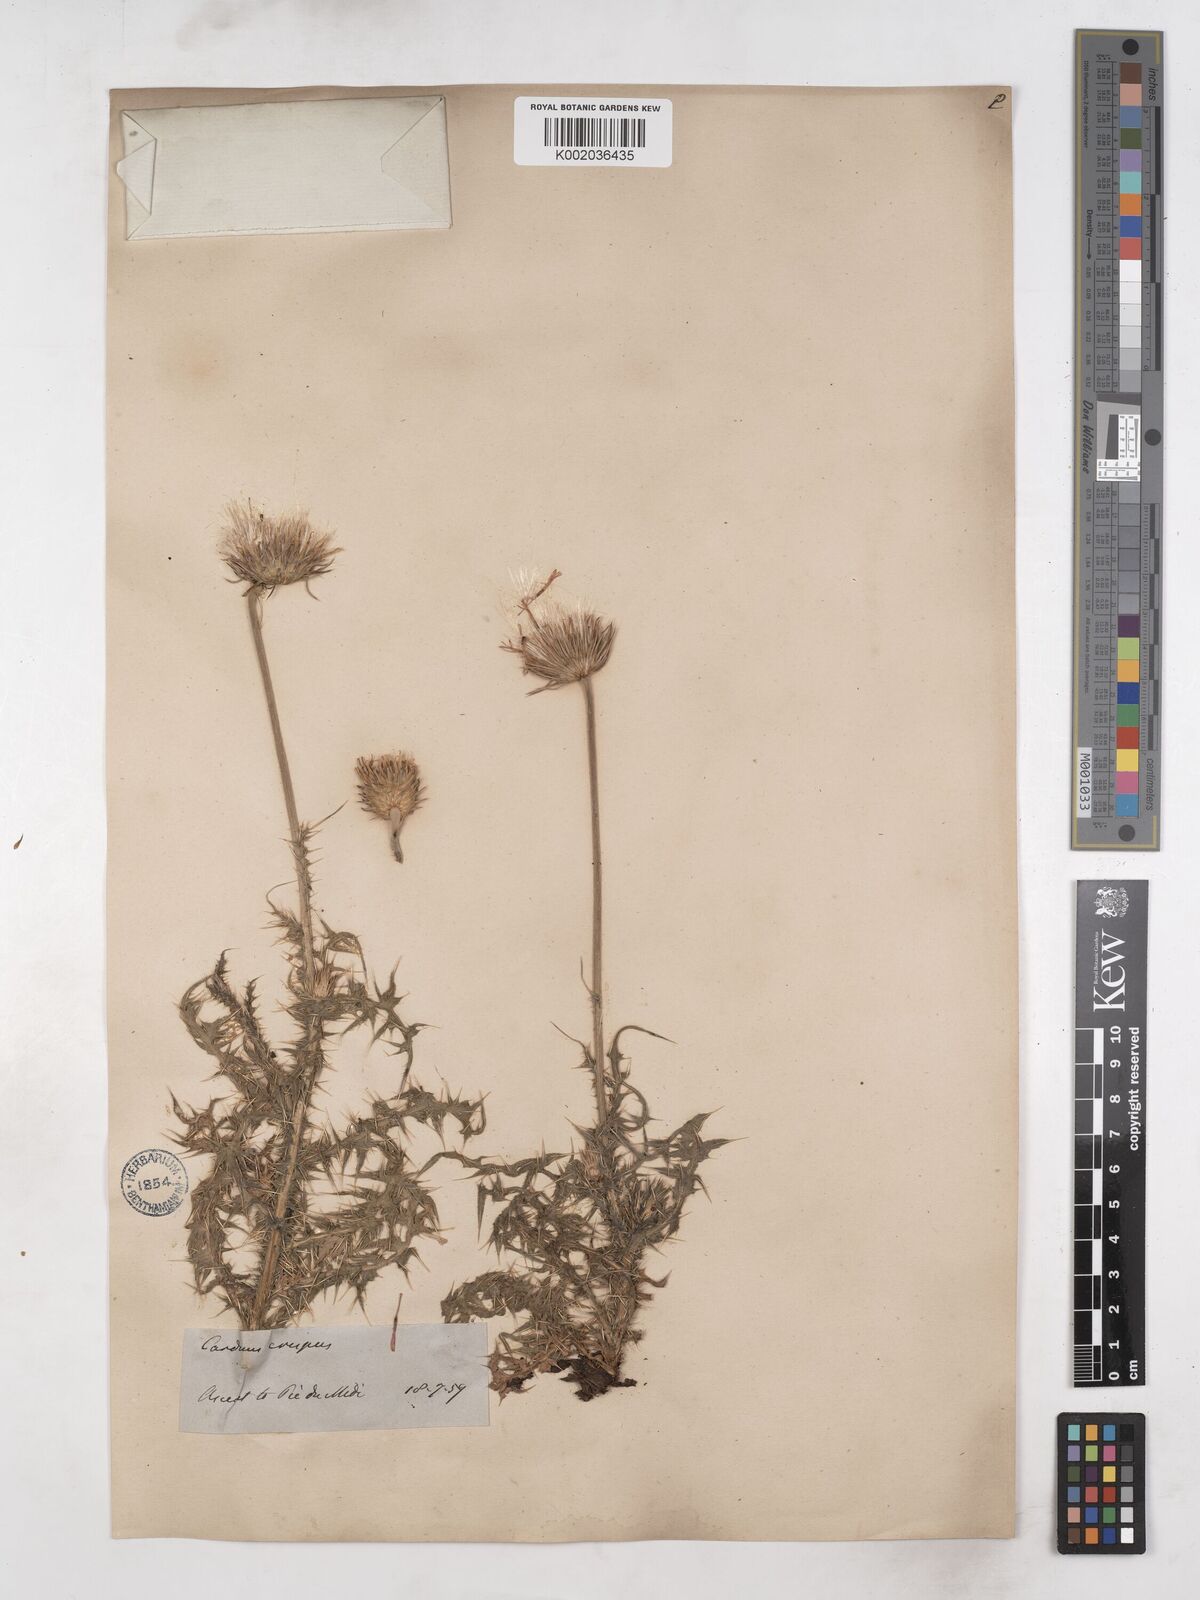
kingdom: Plantae
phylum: Tracheophyta
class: Magnoliopsida
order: Asterales
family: Asteraceae
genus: Carduus
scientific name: Carduus carlinifolius
